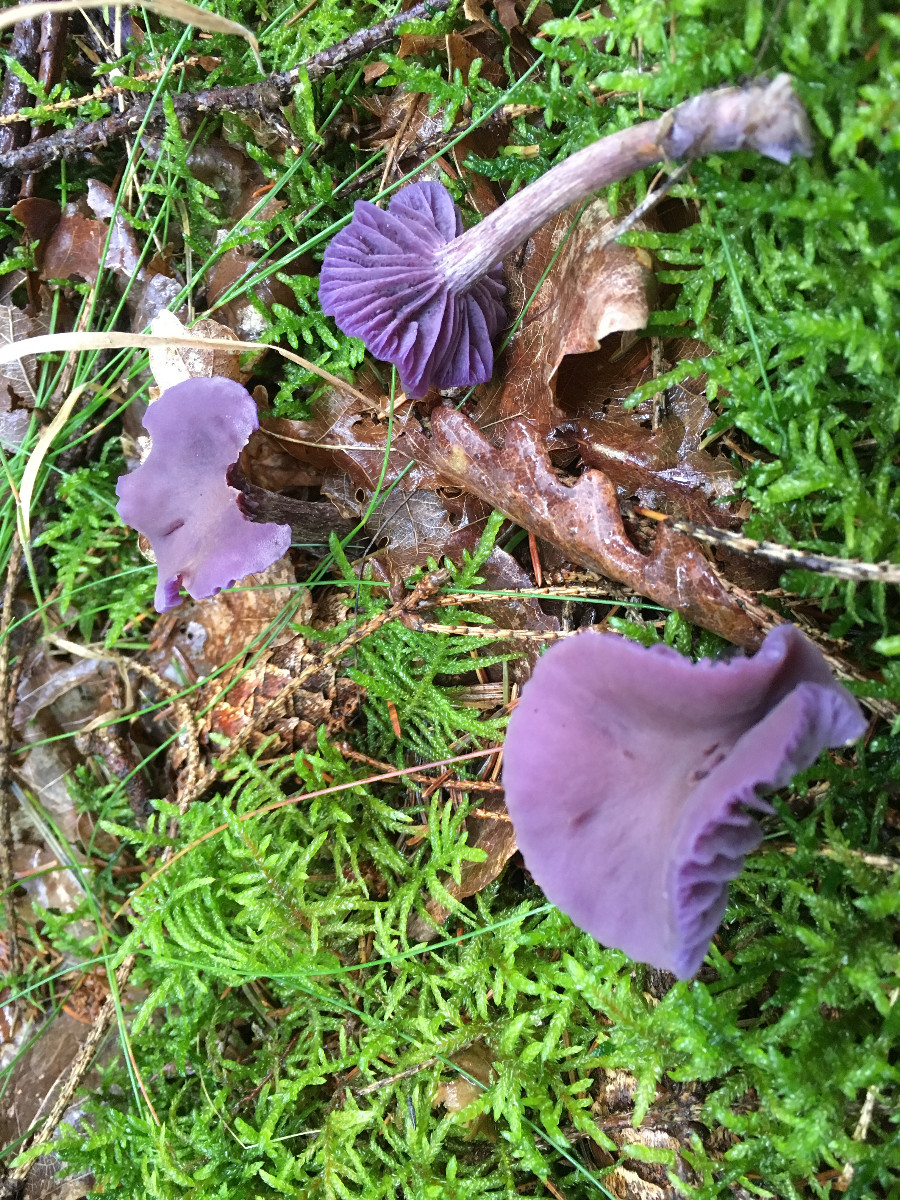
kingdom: Fungi
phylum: Basidiomycota
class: Agaricomycetes
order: Agaricales
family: Hydnangiaceae
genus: Laccaria
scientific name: Laccaria amethystina
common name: violet ametysthat
